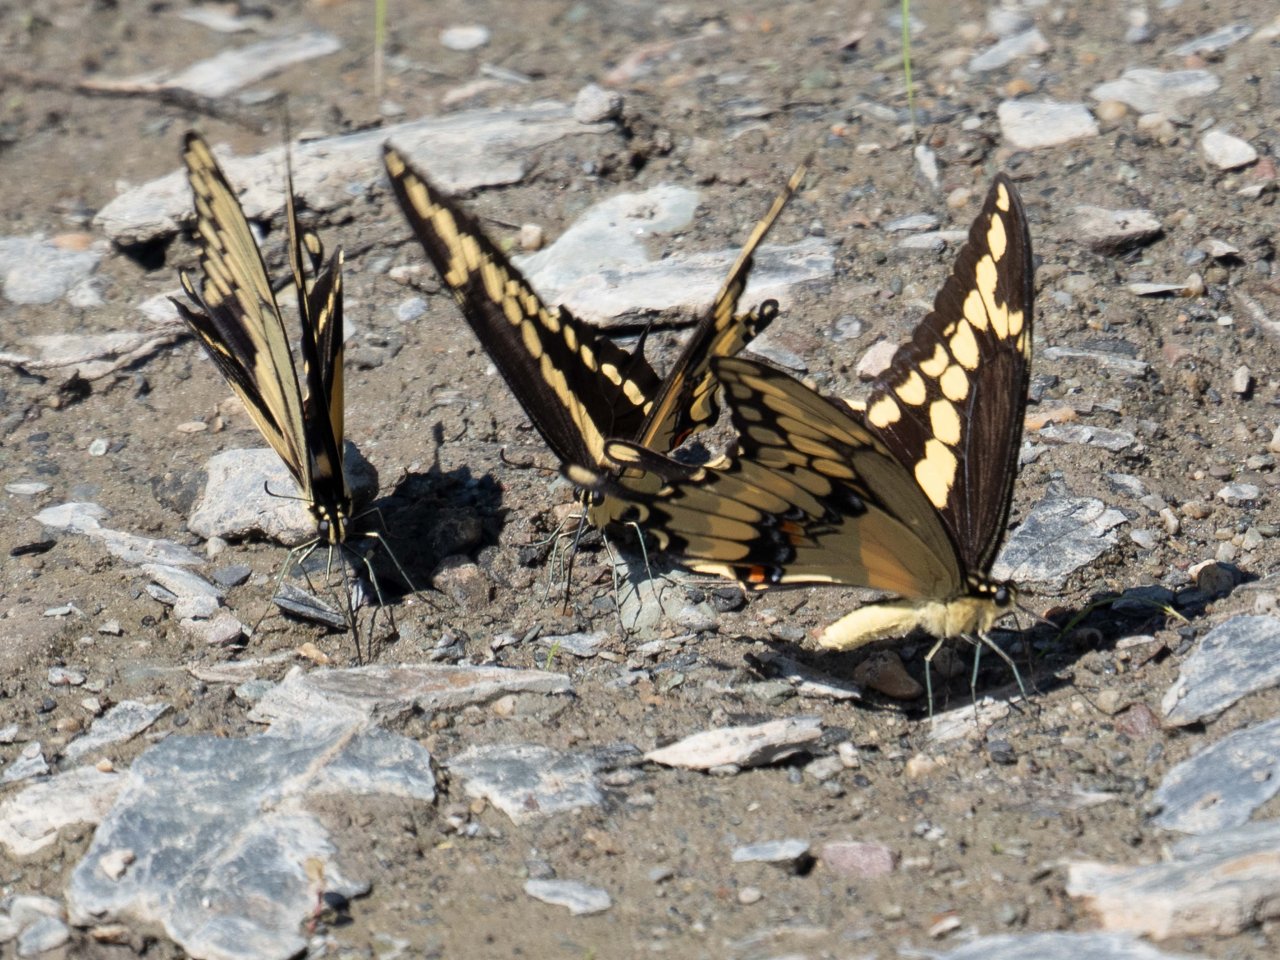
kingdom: Animalia
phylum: Arthropoda
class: Insecta
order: Lepidoptera
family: Papilionidae
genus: Papilio
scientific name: Papilio cresphontes
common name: Eastern Giant Swallowtail
